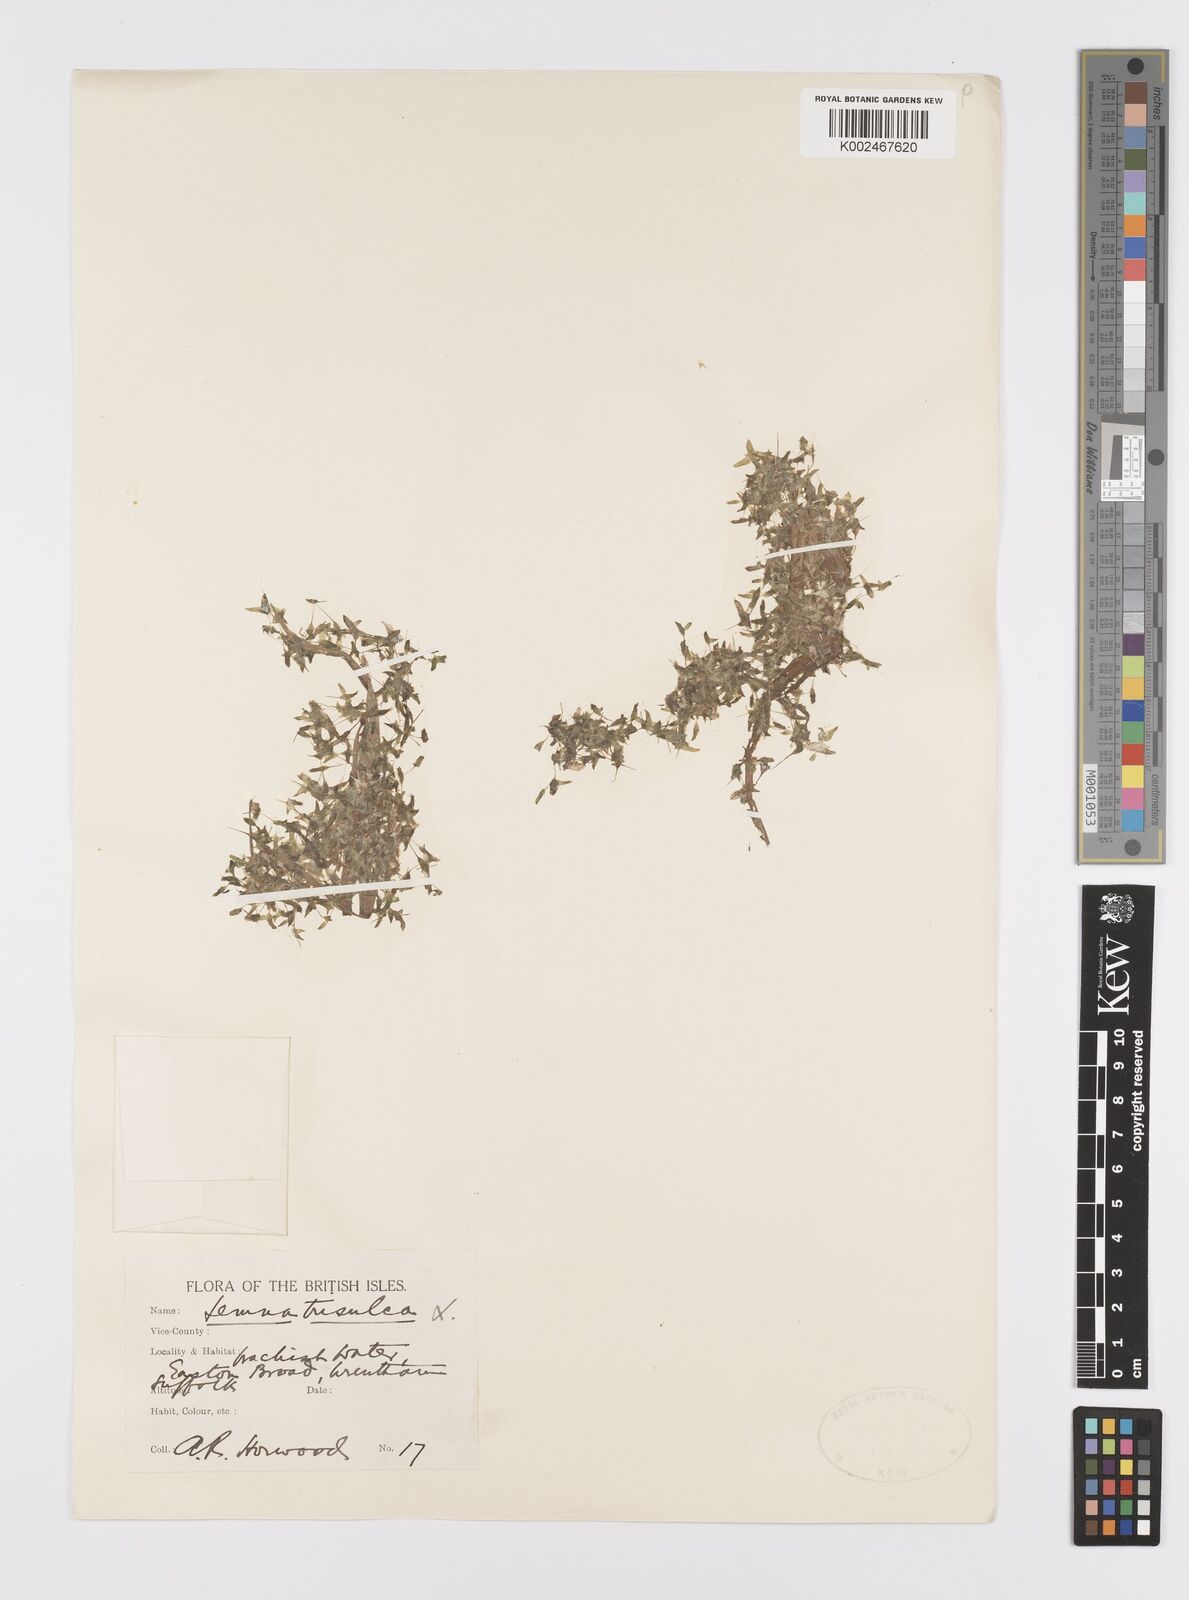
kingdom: Plantae
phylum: Tracheophyta
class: Liliopsida
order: Alismatales
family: Araceae
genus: Lemna
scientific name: Lemna trisulca
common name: Ivy-leaved duckweed
